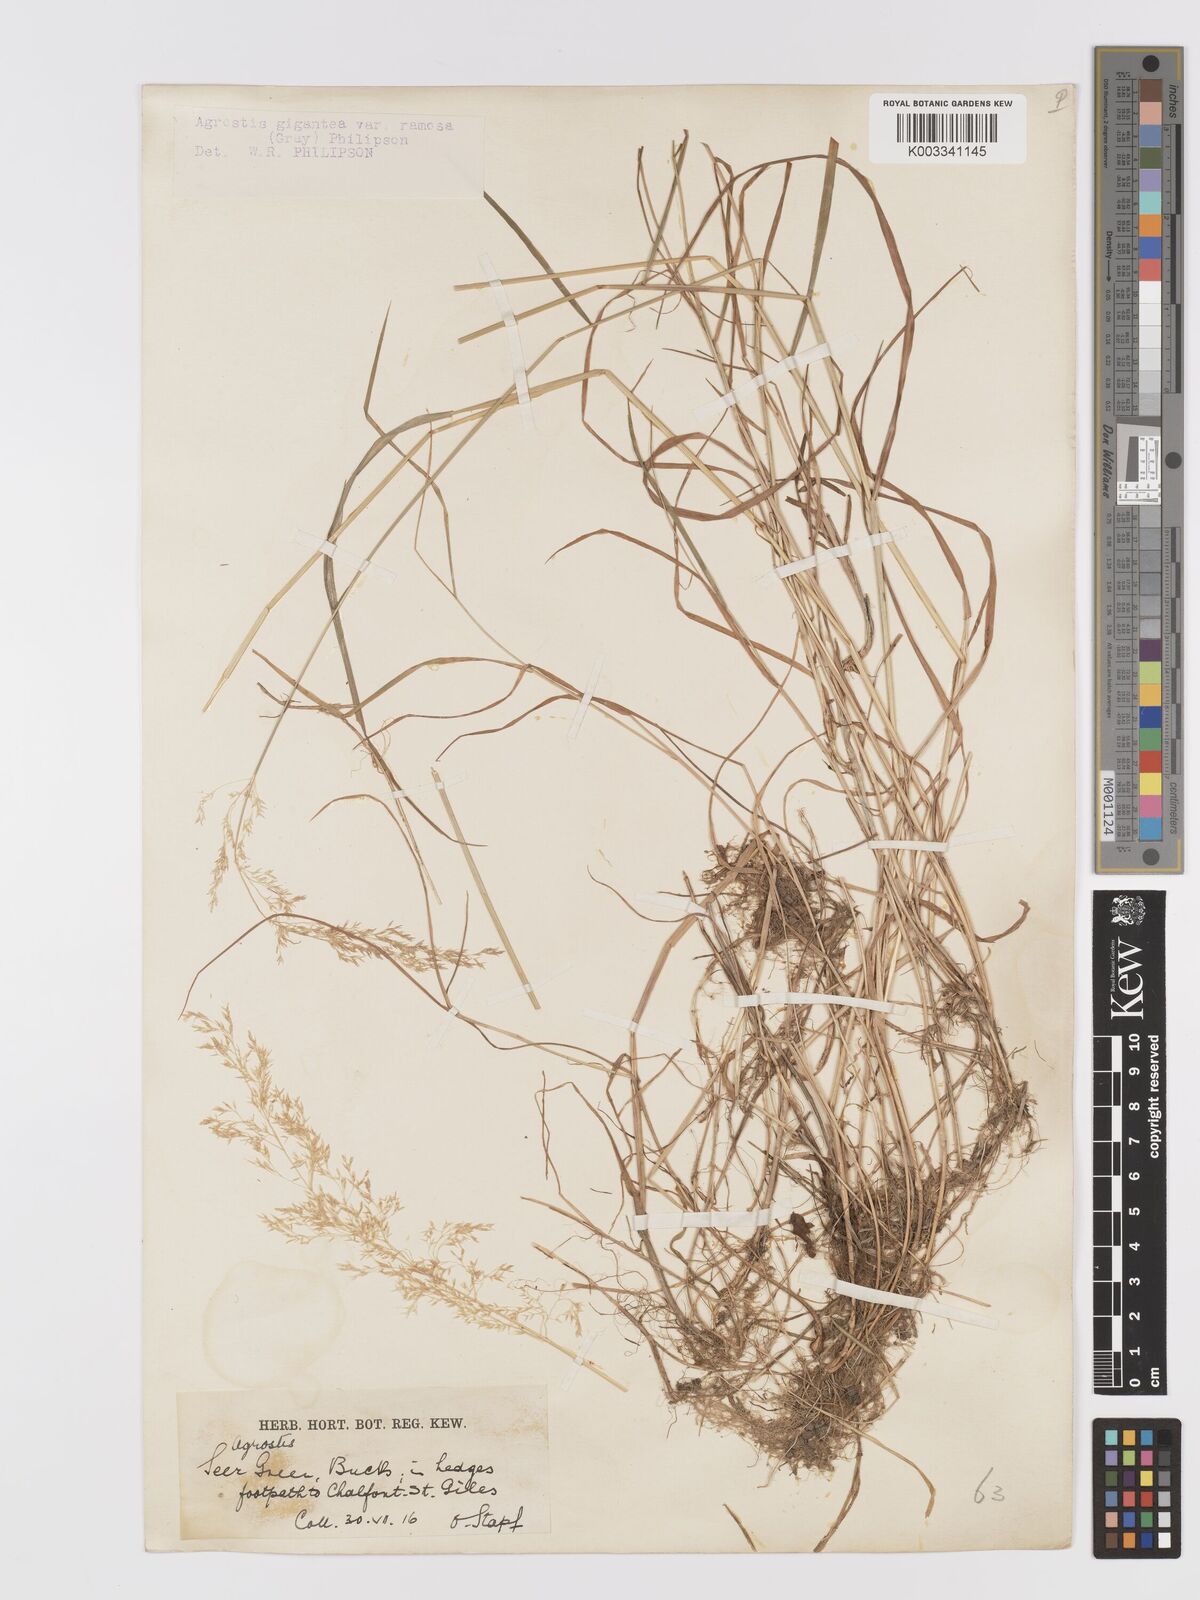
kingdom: Plantae
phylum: Tracheophyta
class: Liliopsida
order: Poales
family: Poaceae
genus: Agrostis
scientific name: Agrostis gigantea
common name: Black bent
